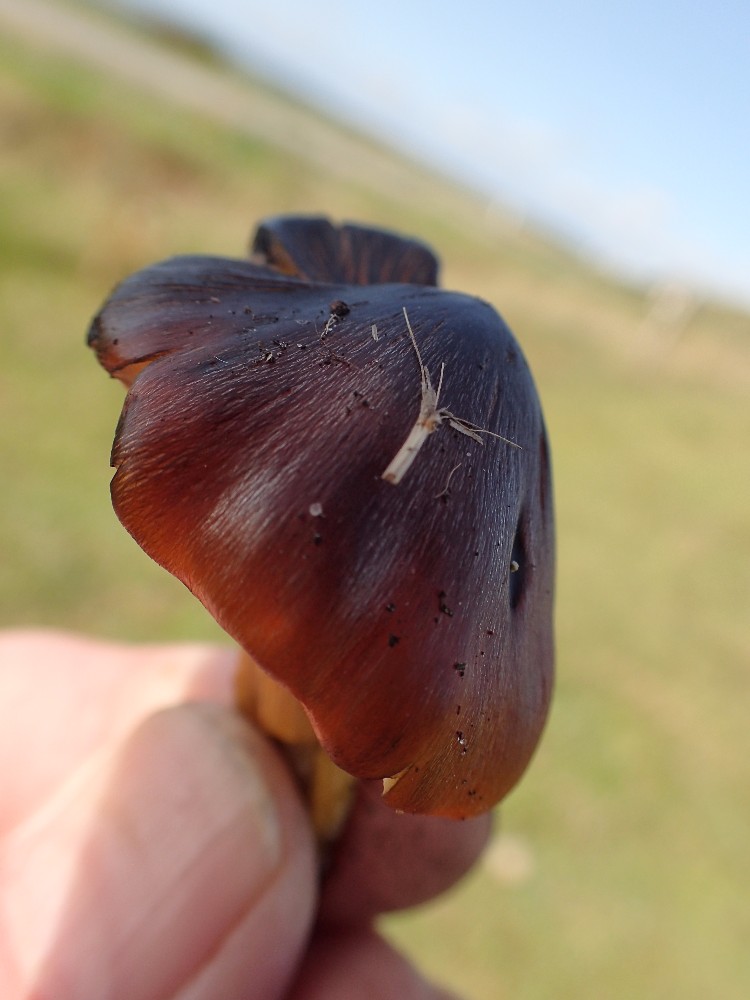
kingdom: Fungi
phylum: Basidiomycota
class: Agaricomycetes
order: Agaricales
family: Hygrophoraceae
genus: Hygrocybe
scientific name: Hygrocybe conica
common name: kegle-vokshat
